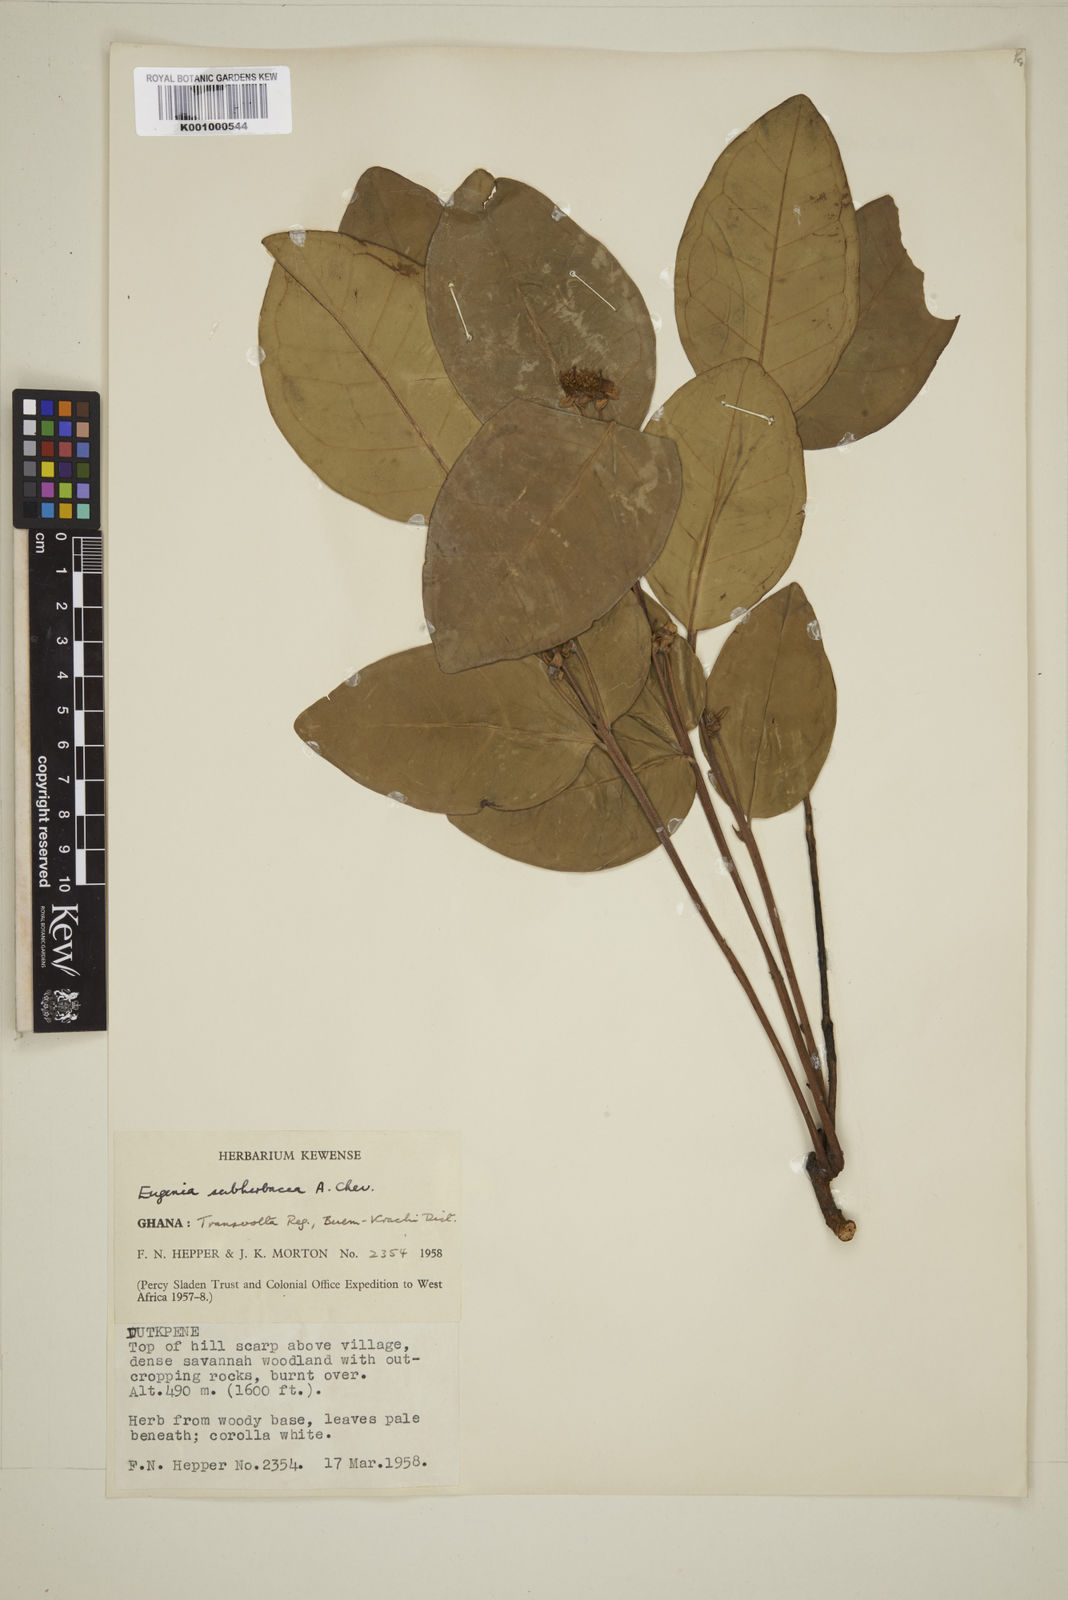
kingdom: Plantae
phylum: Tracheophyta
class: Magnoliopsida
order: Myrtales
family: Myrtaceae
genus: Eugenia
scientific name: Eugenia subherbacea
